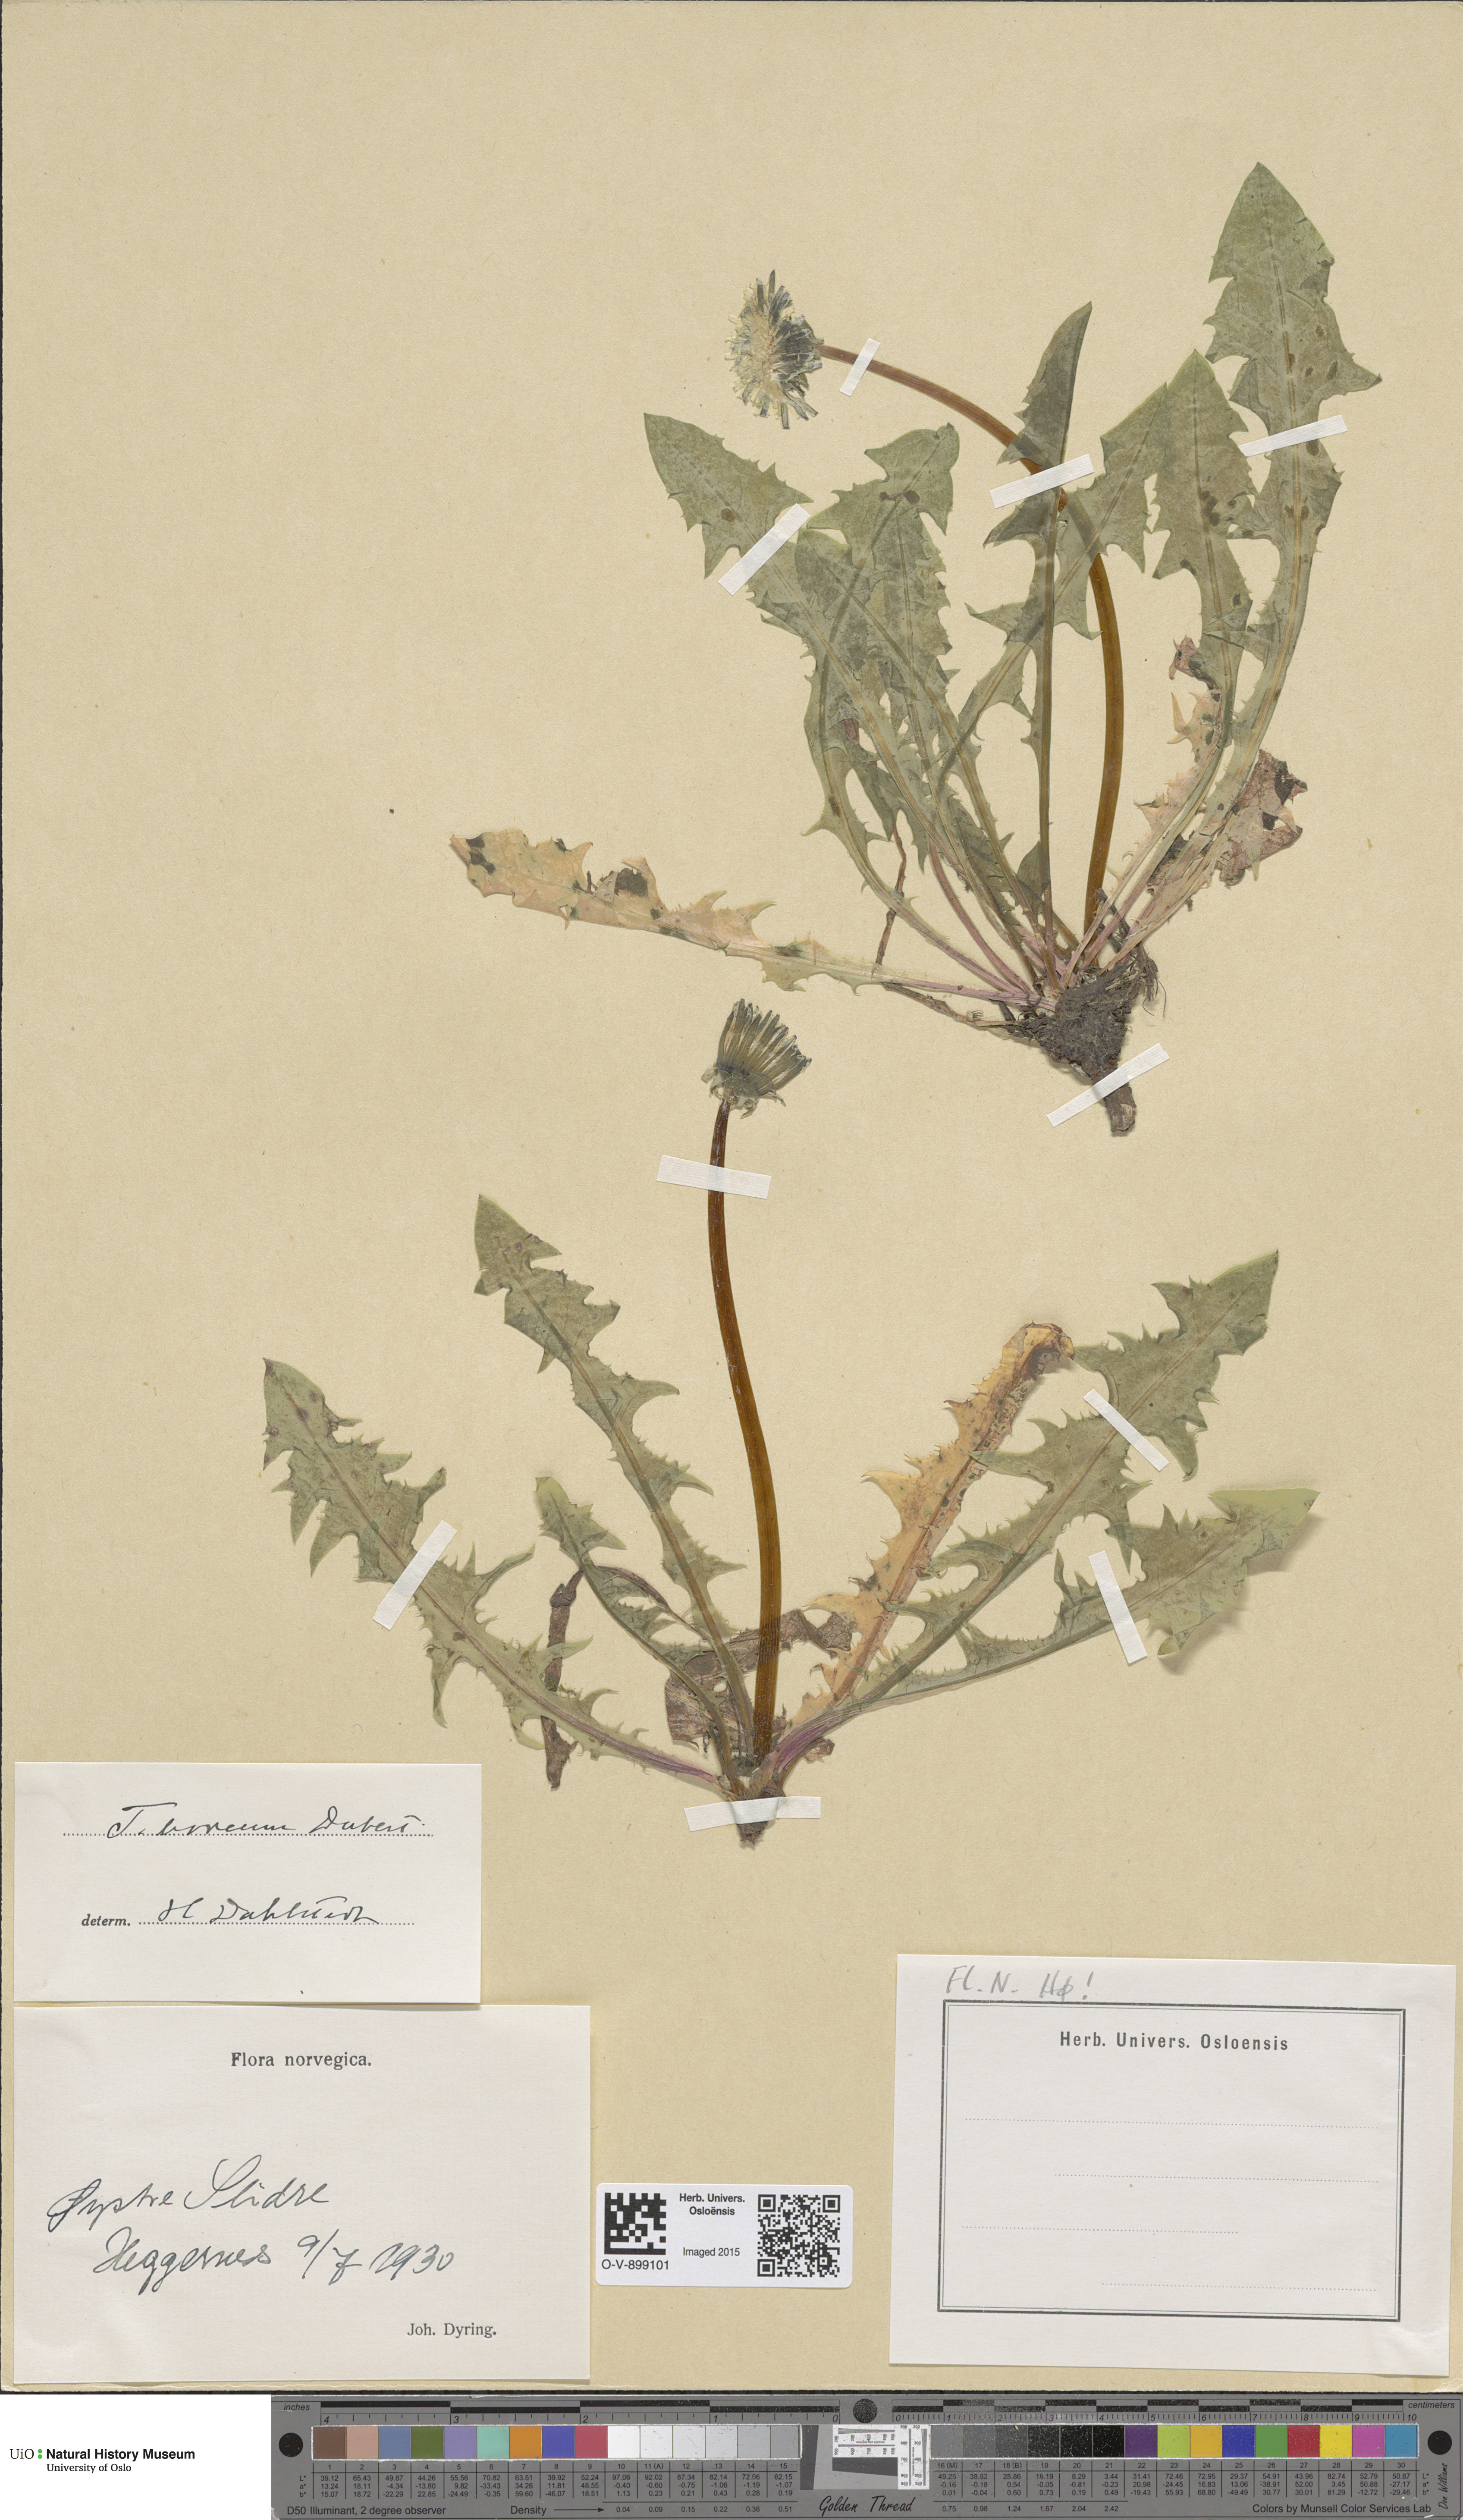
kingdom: Plantae
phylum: Tracheophyta
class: Magnoliopsida
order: Asterales
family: Asteraceae
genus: Taraxacum
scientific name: Taraxacum septentrionale
